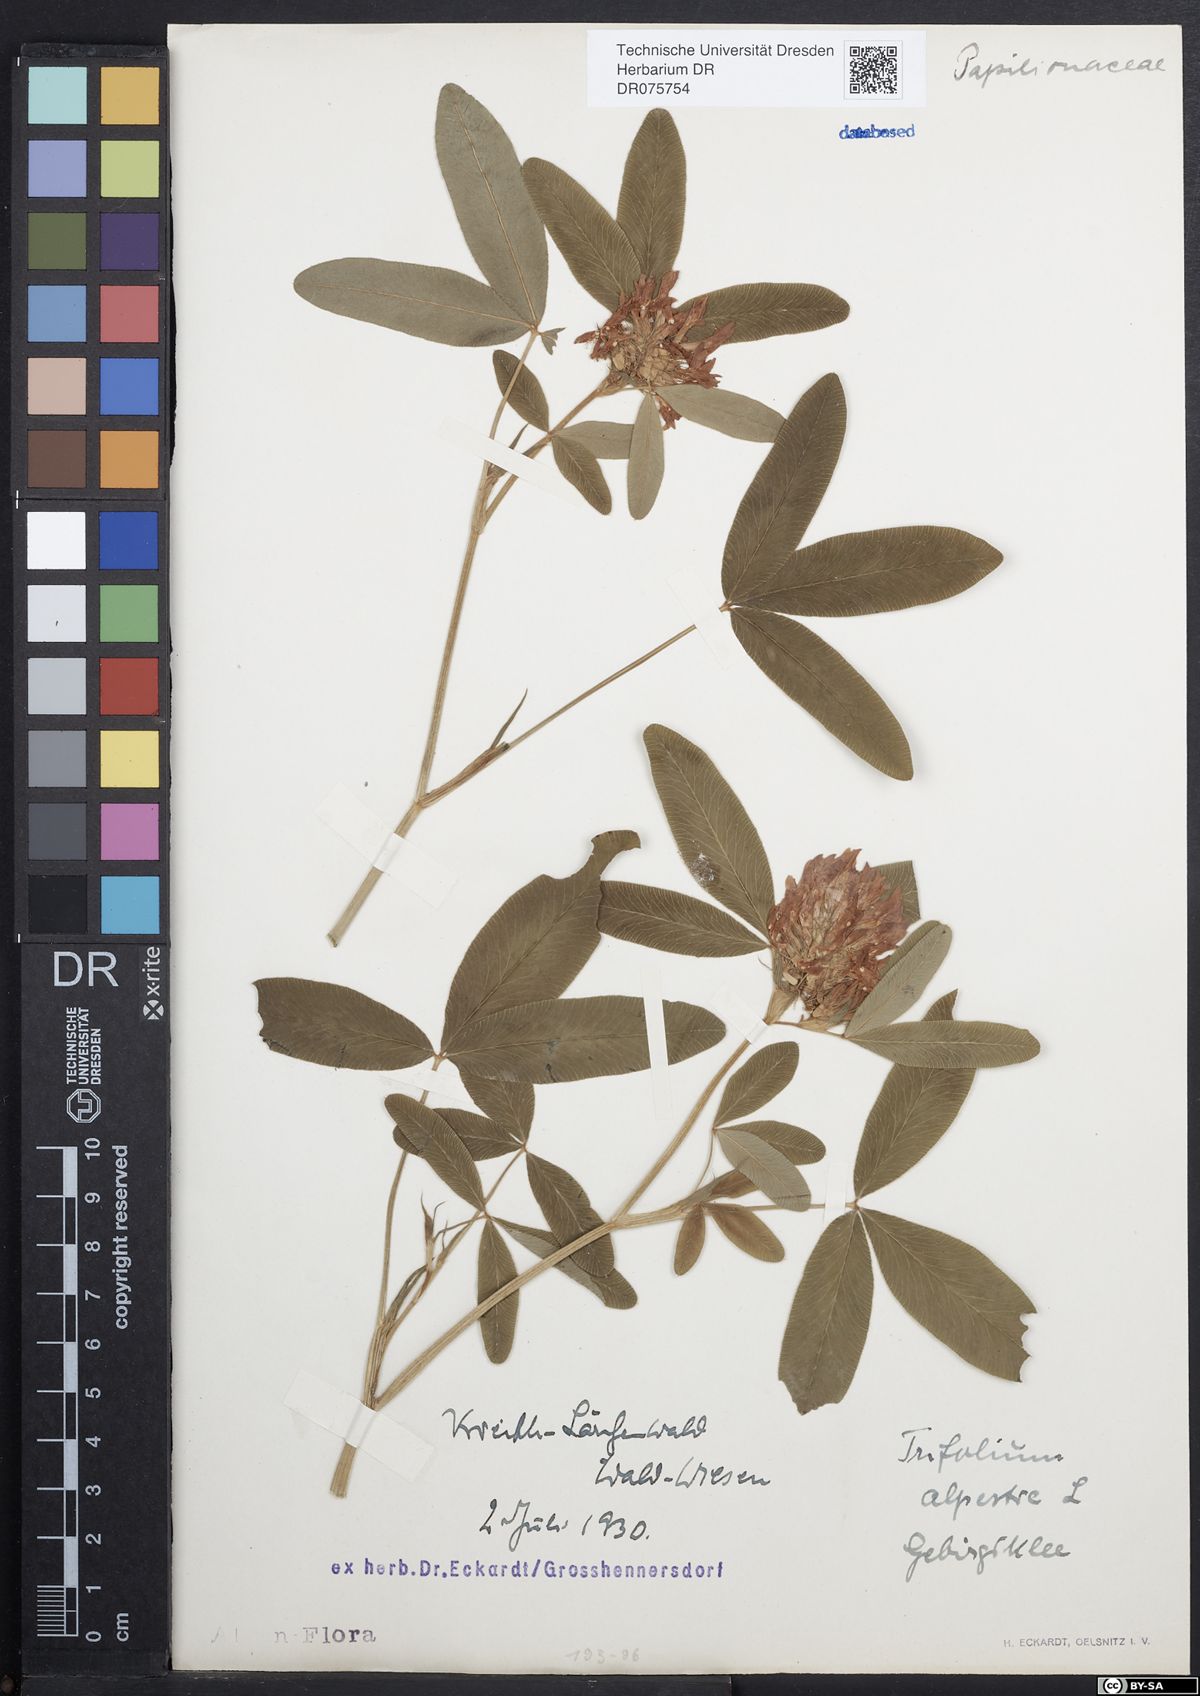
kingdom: Plantae
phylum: Tracheophyta
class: Magnoliopsida
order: Fabales
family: Fabaceae
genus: Trifolium
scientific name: Trifolium medium
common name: Zigzag clover
